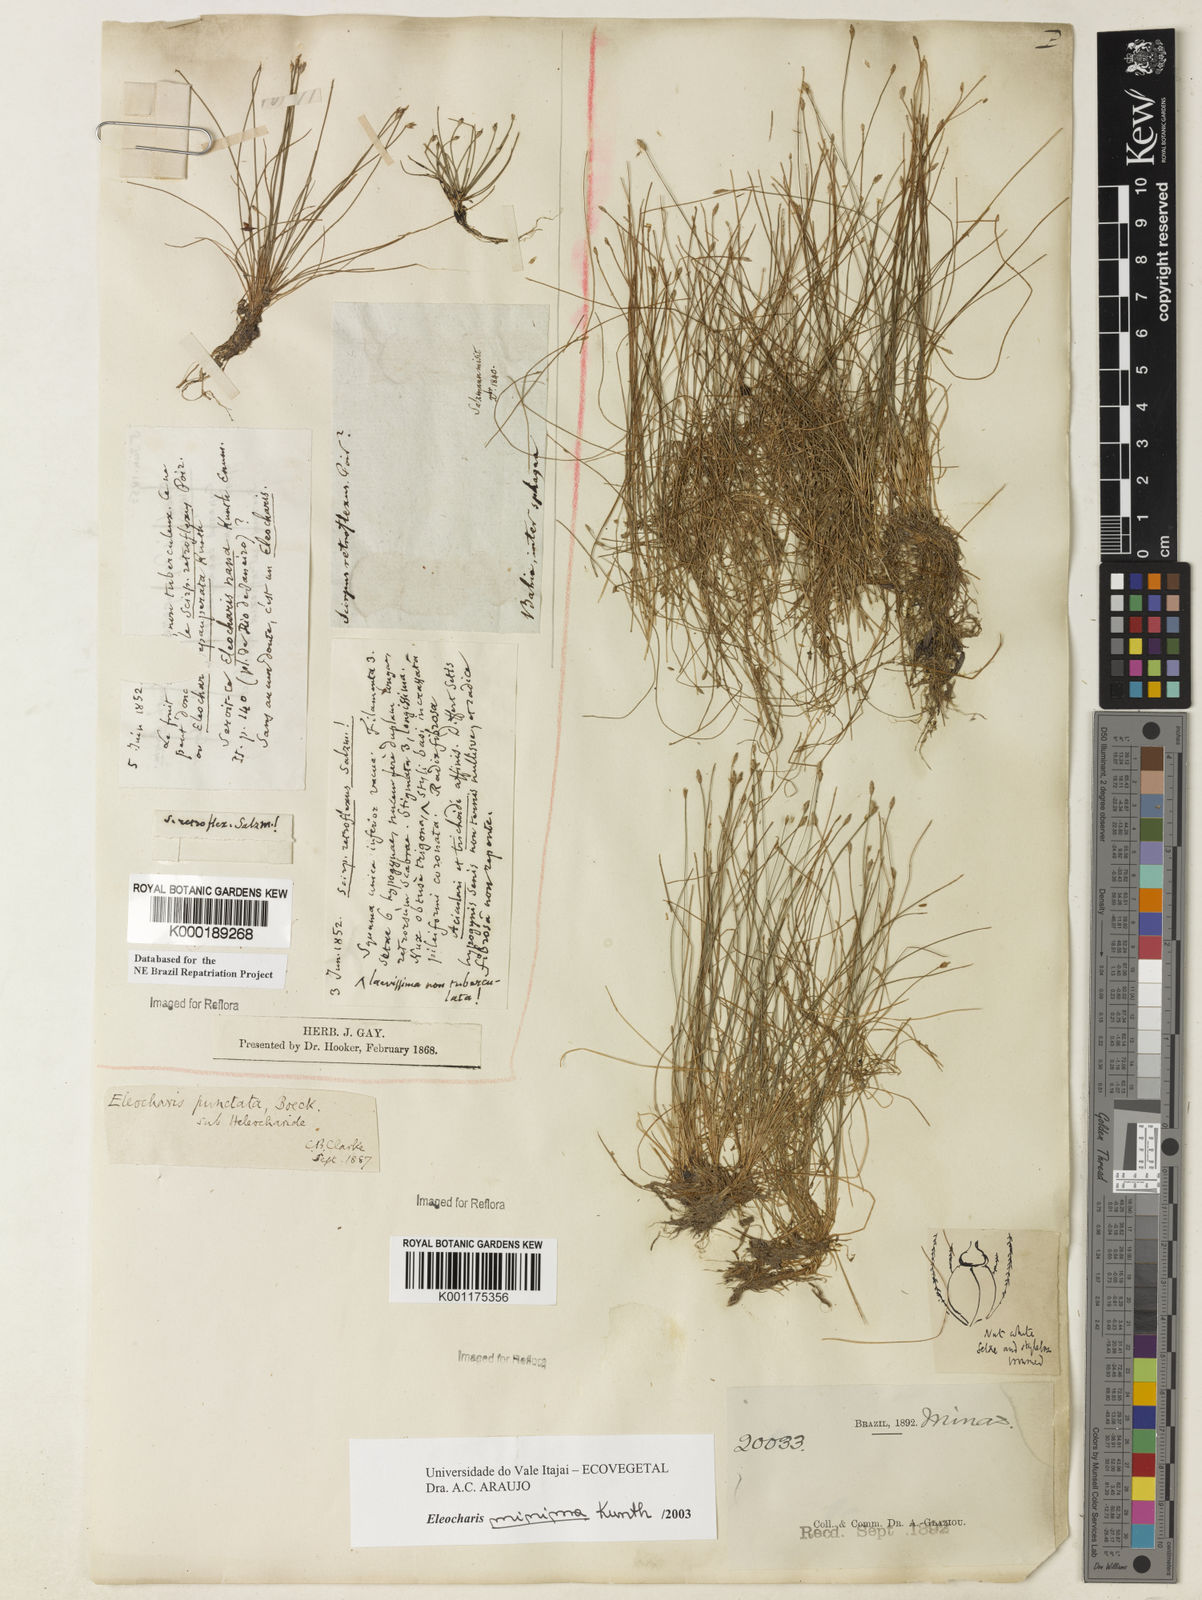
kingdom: Plantae
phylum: Tracheophyta
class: Liliopsida
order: Poales
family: Cyperaceae
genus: Eleocharis
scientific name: Eleocharis minima
